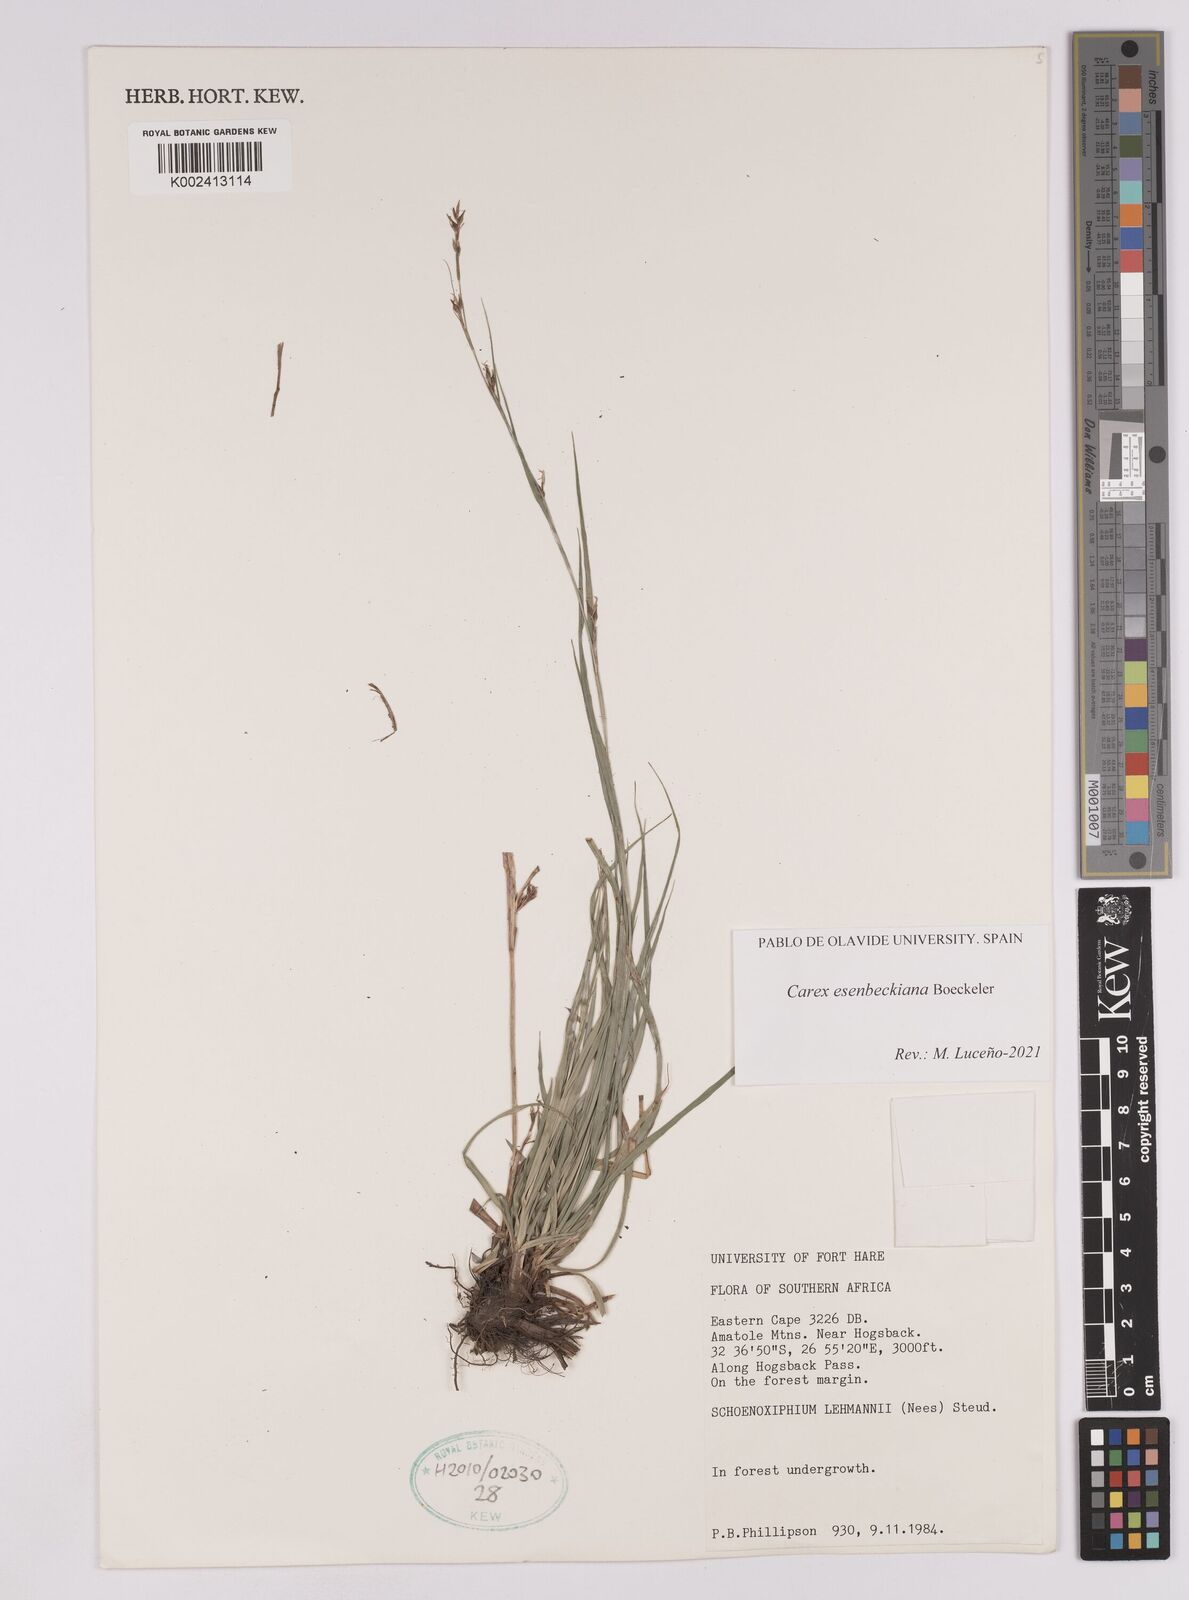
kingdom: Plantae
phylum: Tracheophyta
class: Liliopsida
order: Poales
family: Cyperaceae
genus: Carex
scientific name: Carex kukkoneniana
